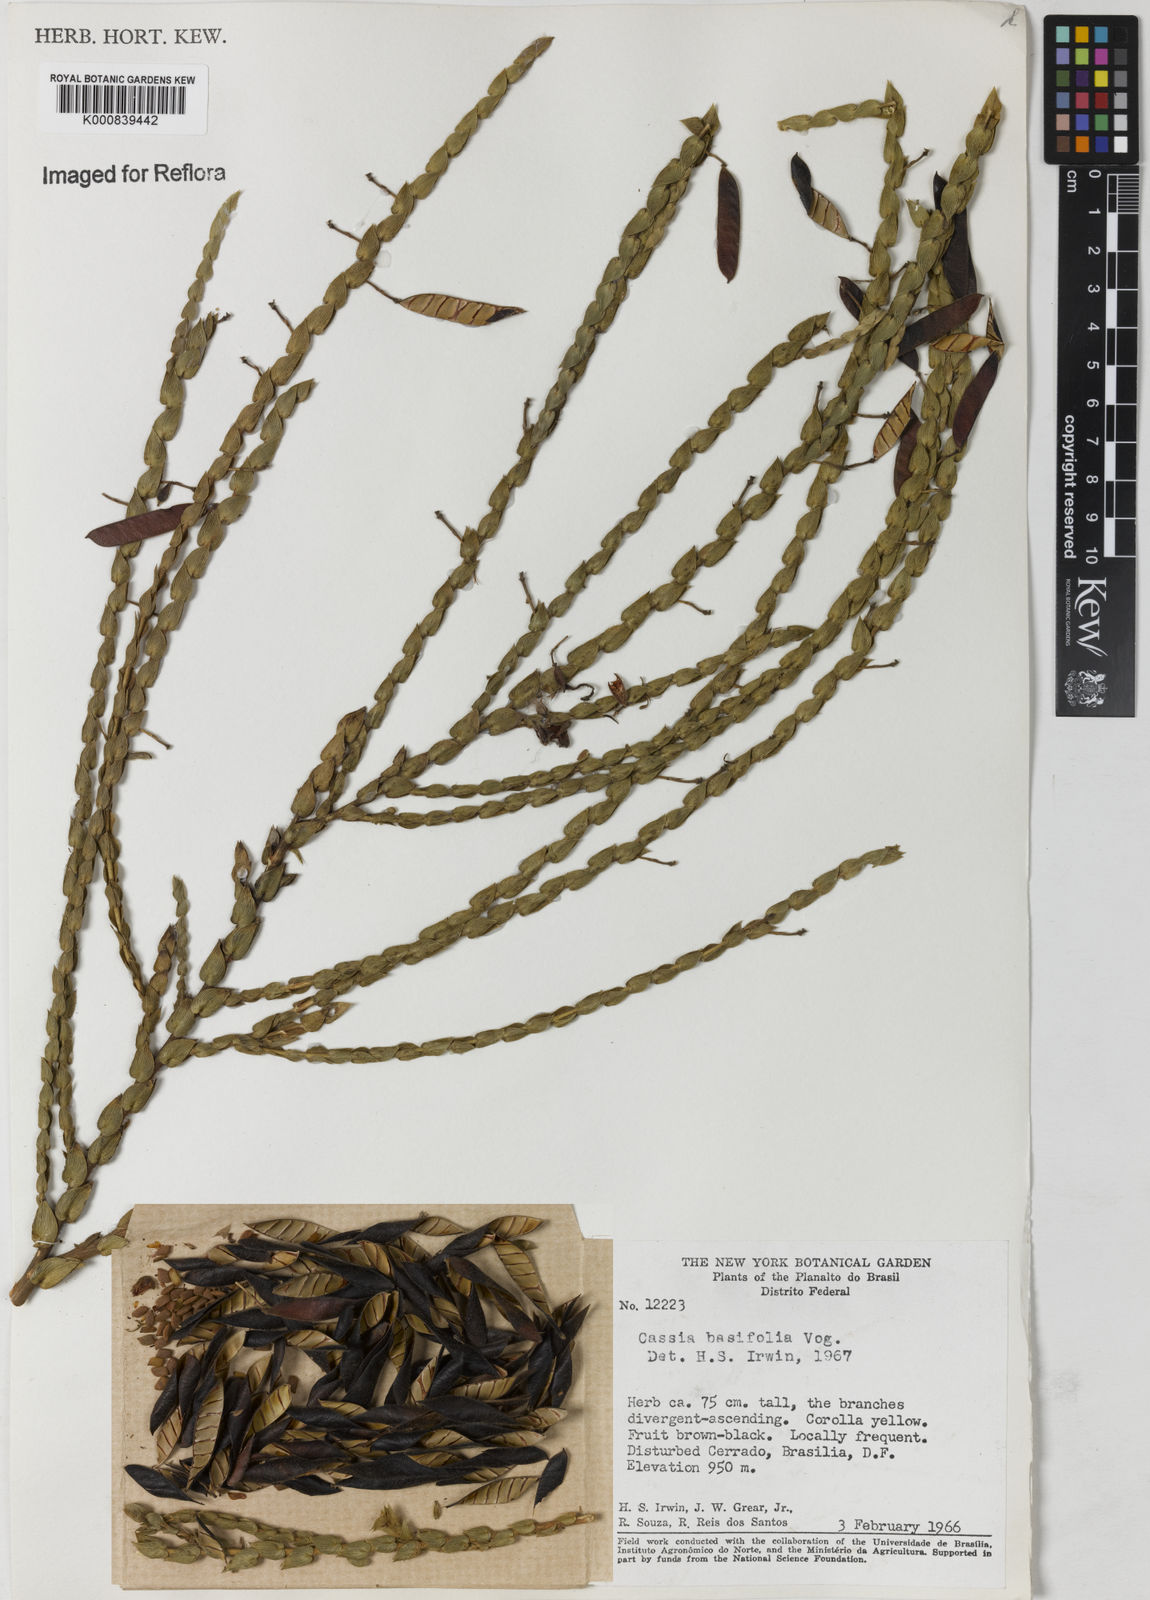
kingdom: Plantae
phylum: Tracheophyta
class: Magnoliopsida
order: Fabales
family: Fabaceae
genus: Chamaecrista
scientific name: Chamaecrista basifolia
